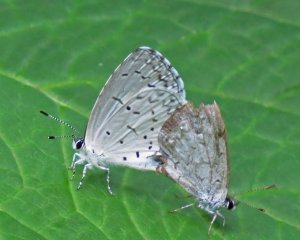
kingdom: Animalia
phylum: Arthropoda
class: Insecta
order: Lepidoptera
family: Lycaenidae
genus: Cyaniris
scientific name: Cyaniris neglecta
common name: Summer Azure
